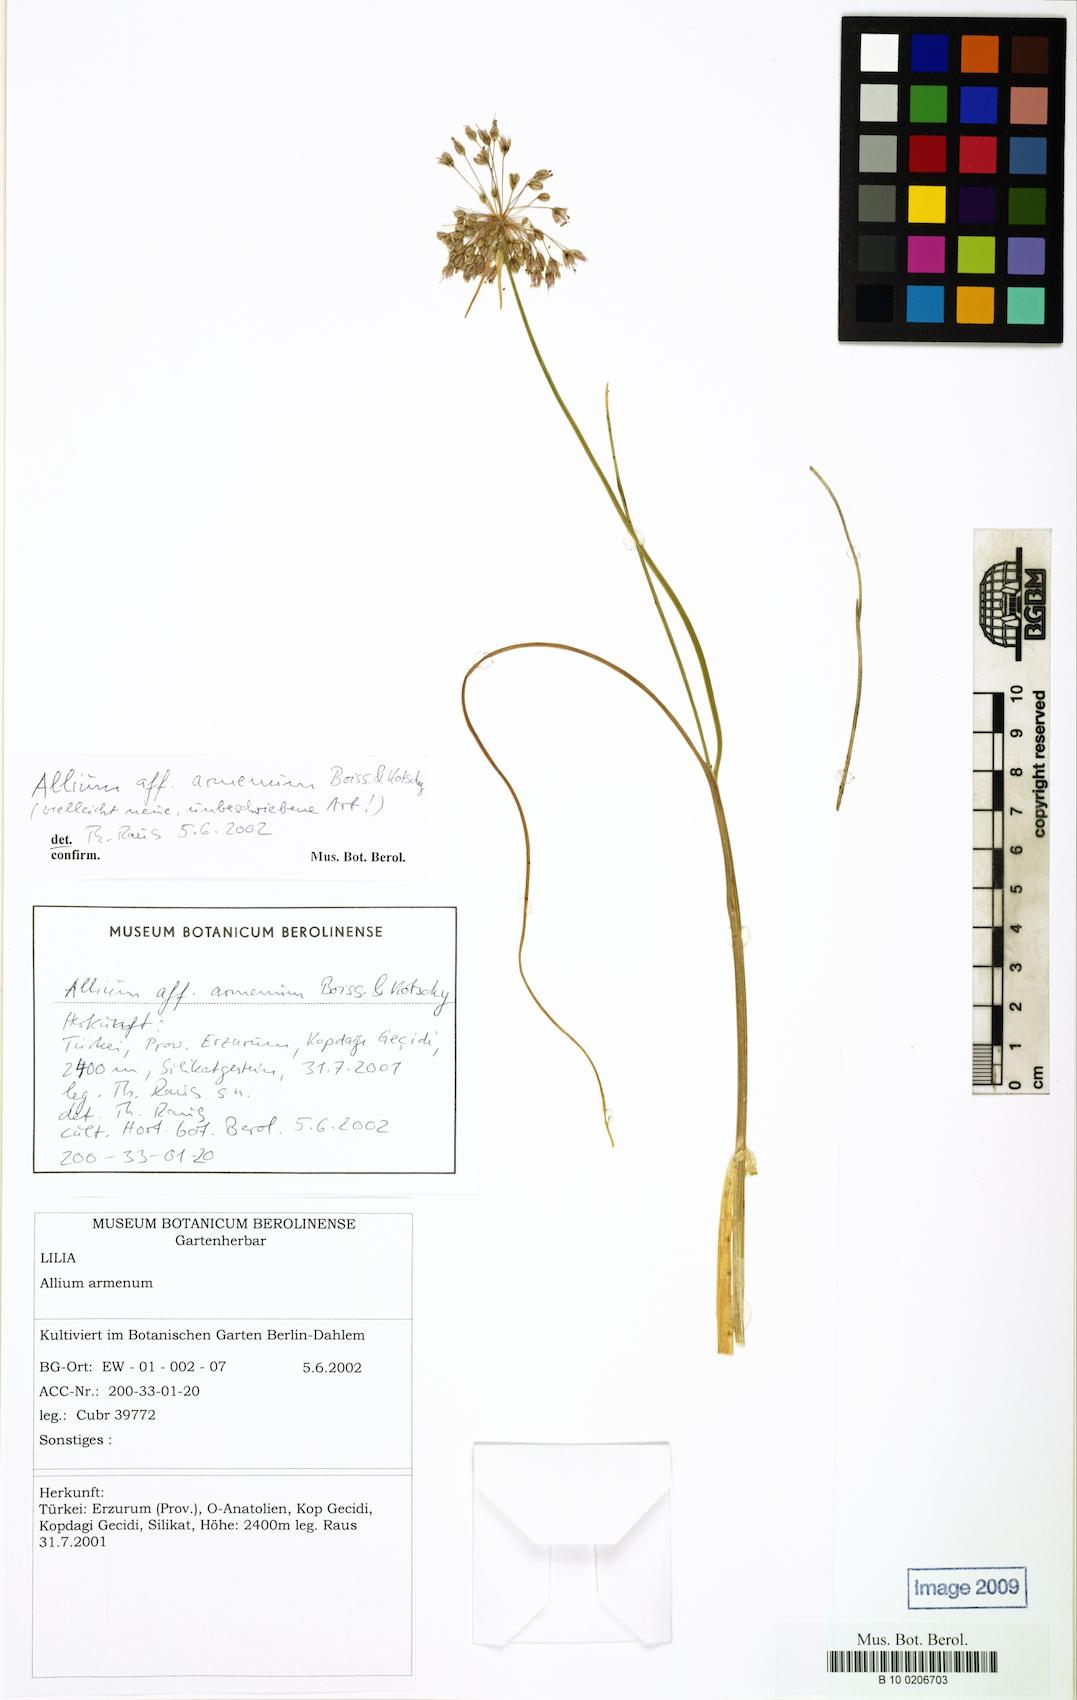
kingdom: Plantae
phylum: Tracheophyta
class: Liliopsida
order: Asparagales
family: Amaryllidaceae
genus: Allium
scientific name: Allium armenum
